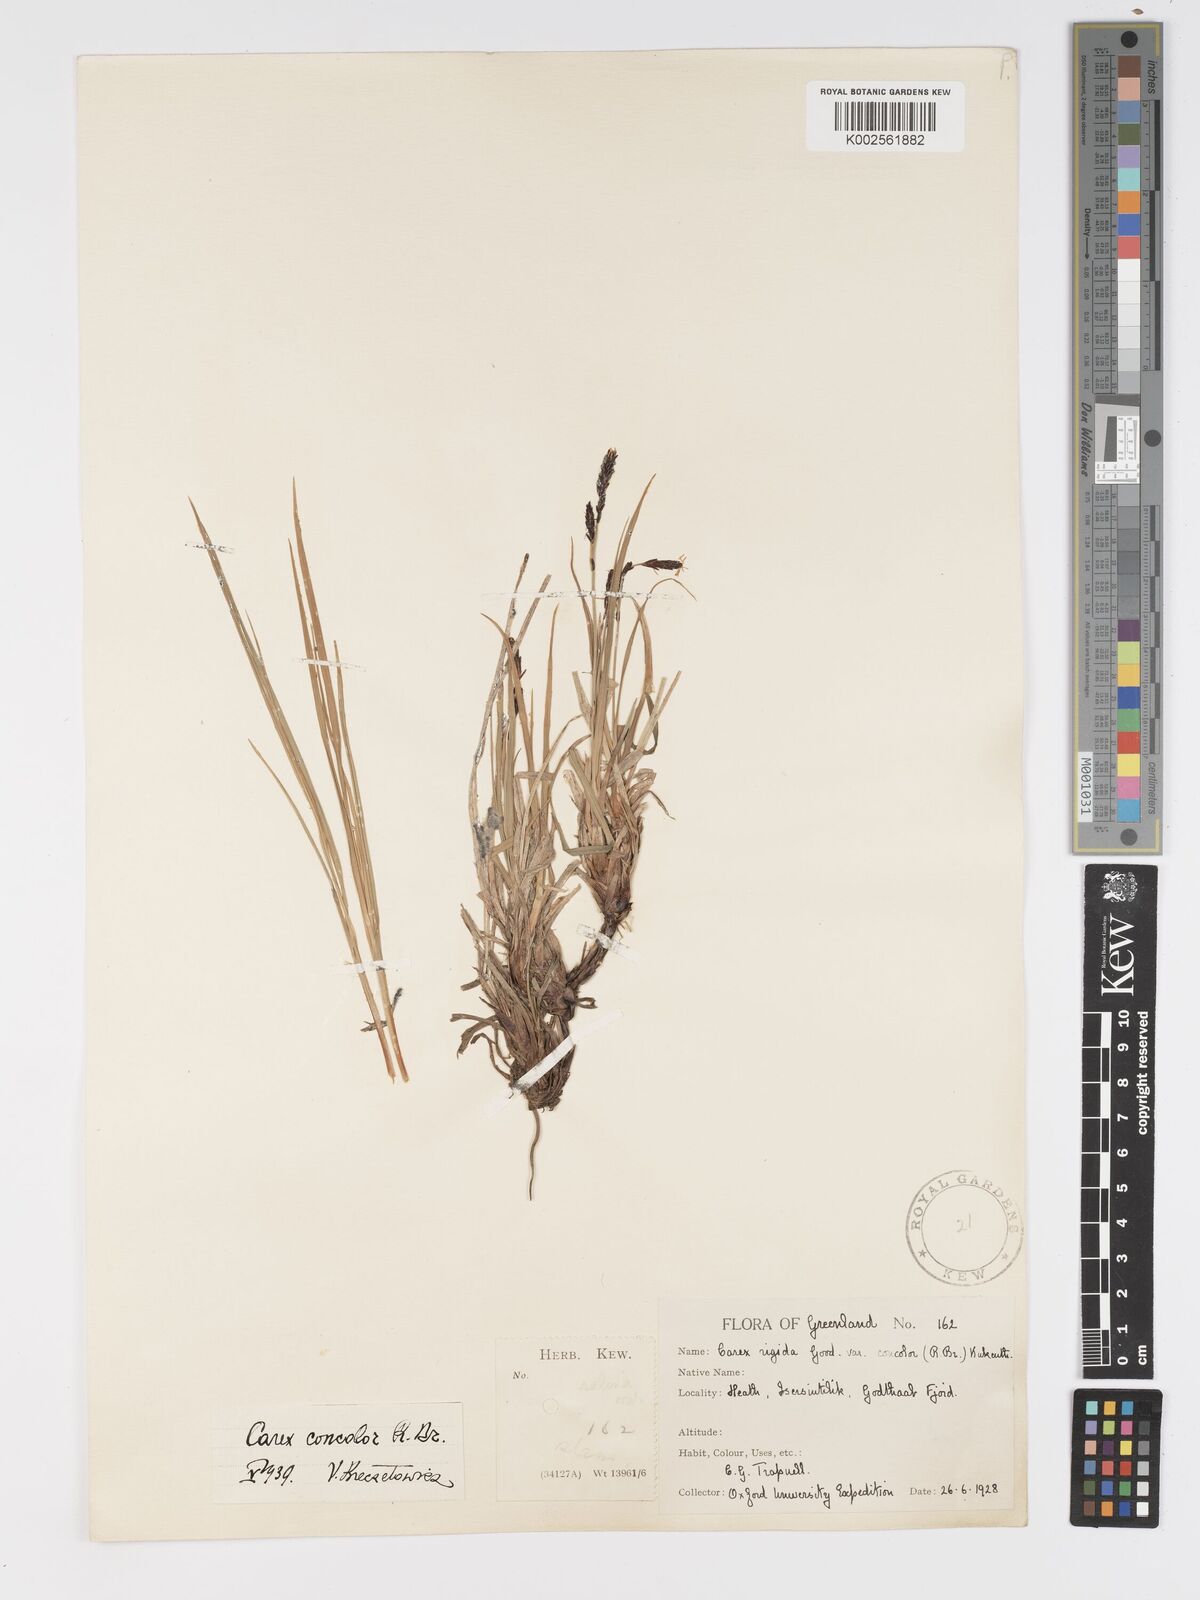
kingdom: Plantae
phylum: Tracheophyta
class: Liliopsida
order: Poales
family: Cyperaceae
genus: Carex
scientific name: Carex bigelowii
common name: Stiff sedge
